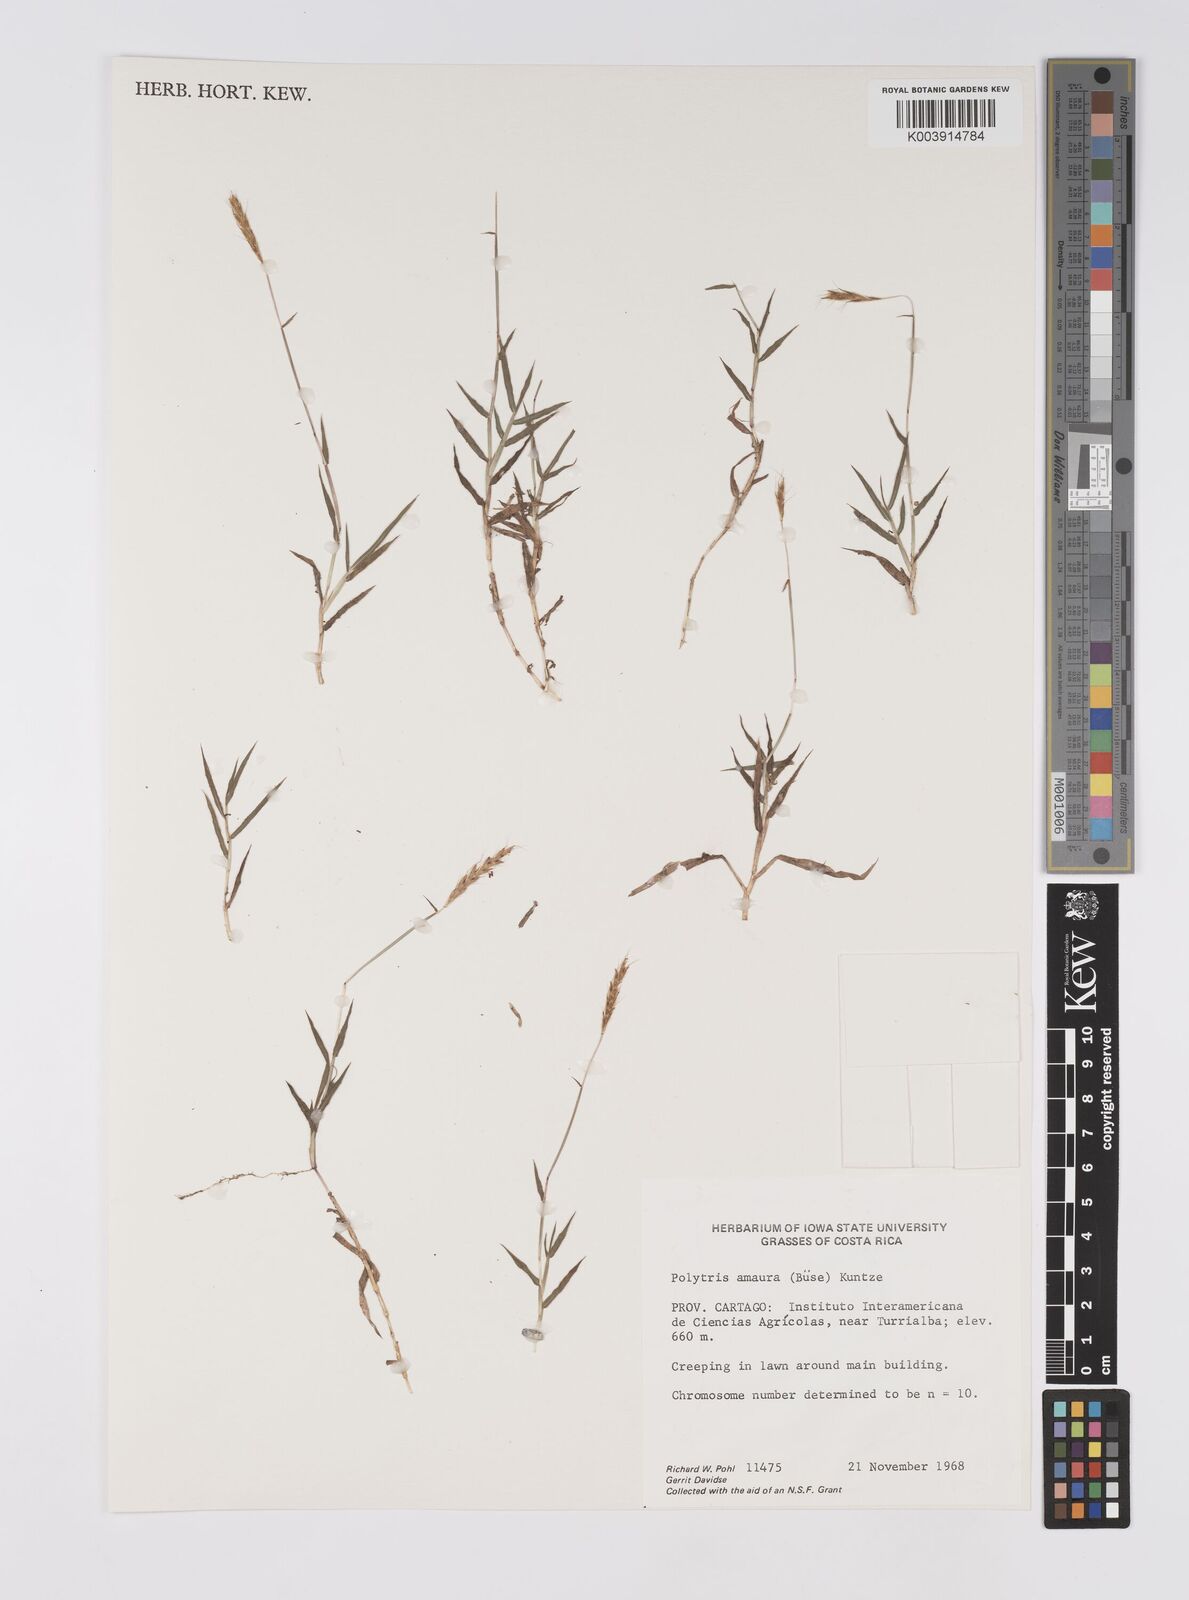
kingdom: Plantae
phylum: Tracheophyta
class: Liliopsida
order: Poales
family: Poaceae
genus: Polytrias
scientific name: Polytrias indica
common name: Indian murainagrass
